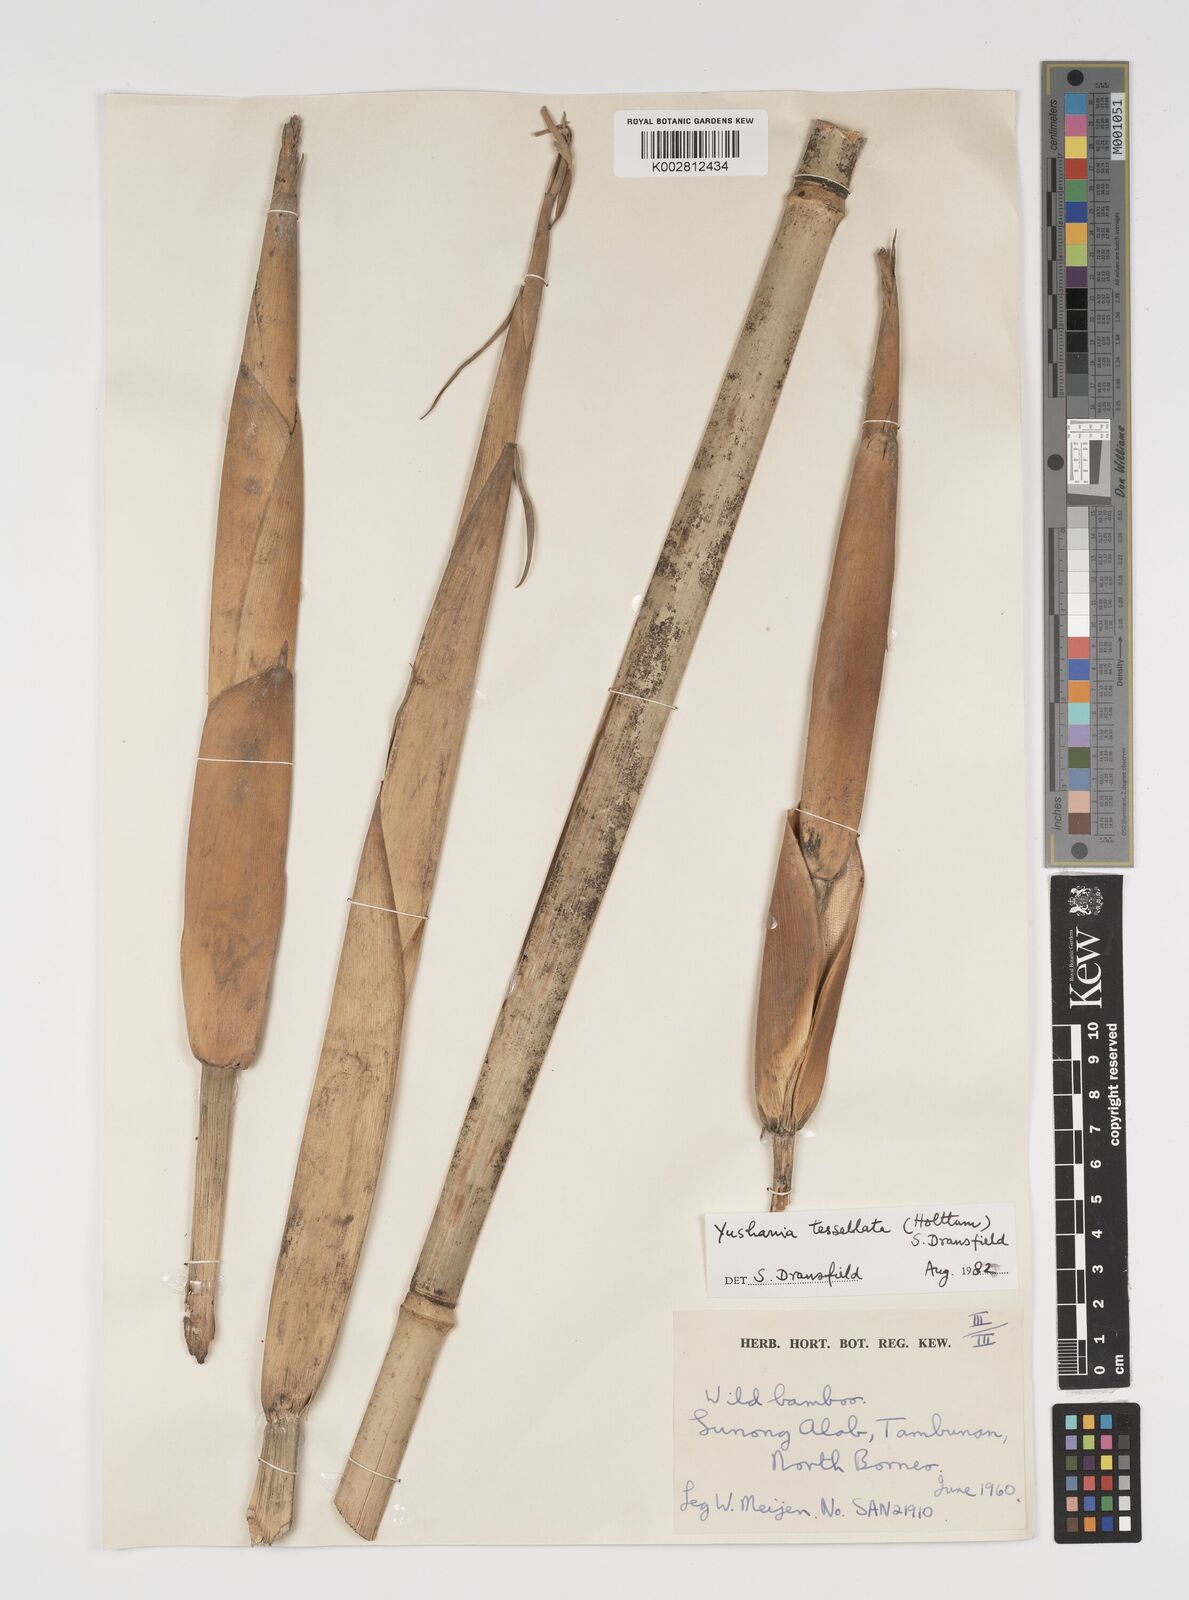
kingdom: Plantae
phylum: Tracheophyta
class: Liliopsida
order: Poales
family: Poaceae
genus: Yushania
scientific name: Yushania tessellata
